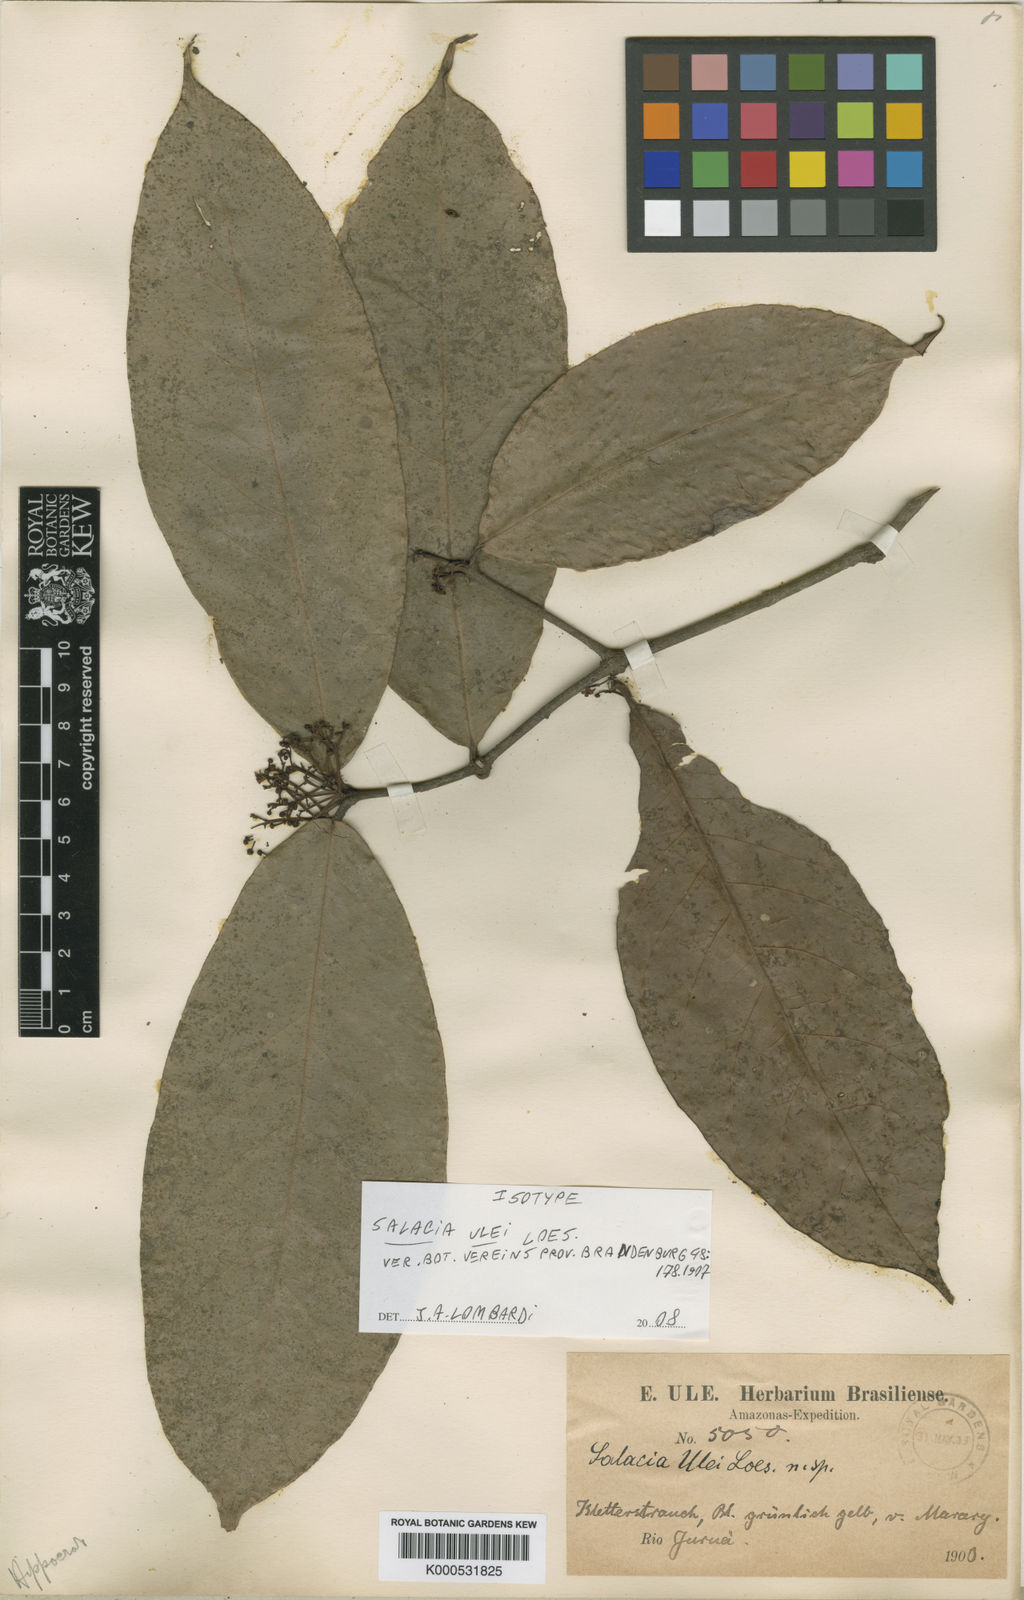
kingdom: Plantae
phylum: Tracheophyta
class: Magnoliopsida
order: Celastrales
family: Celastraceae
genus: Salacia
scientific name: Salacia ulei
